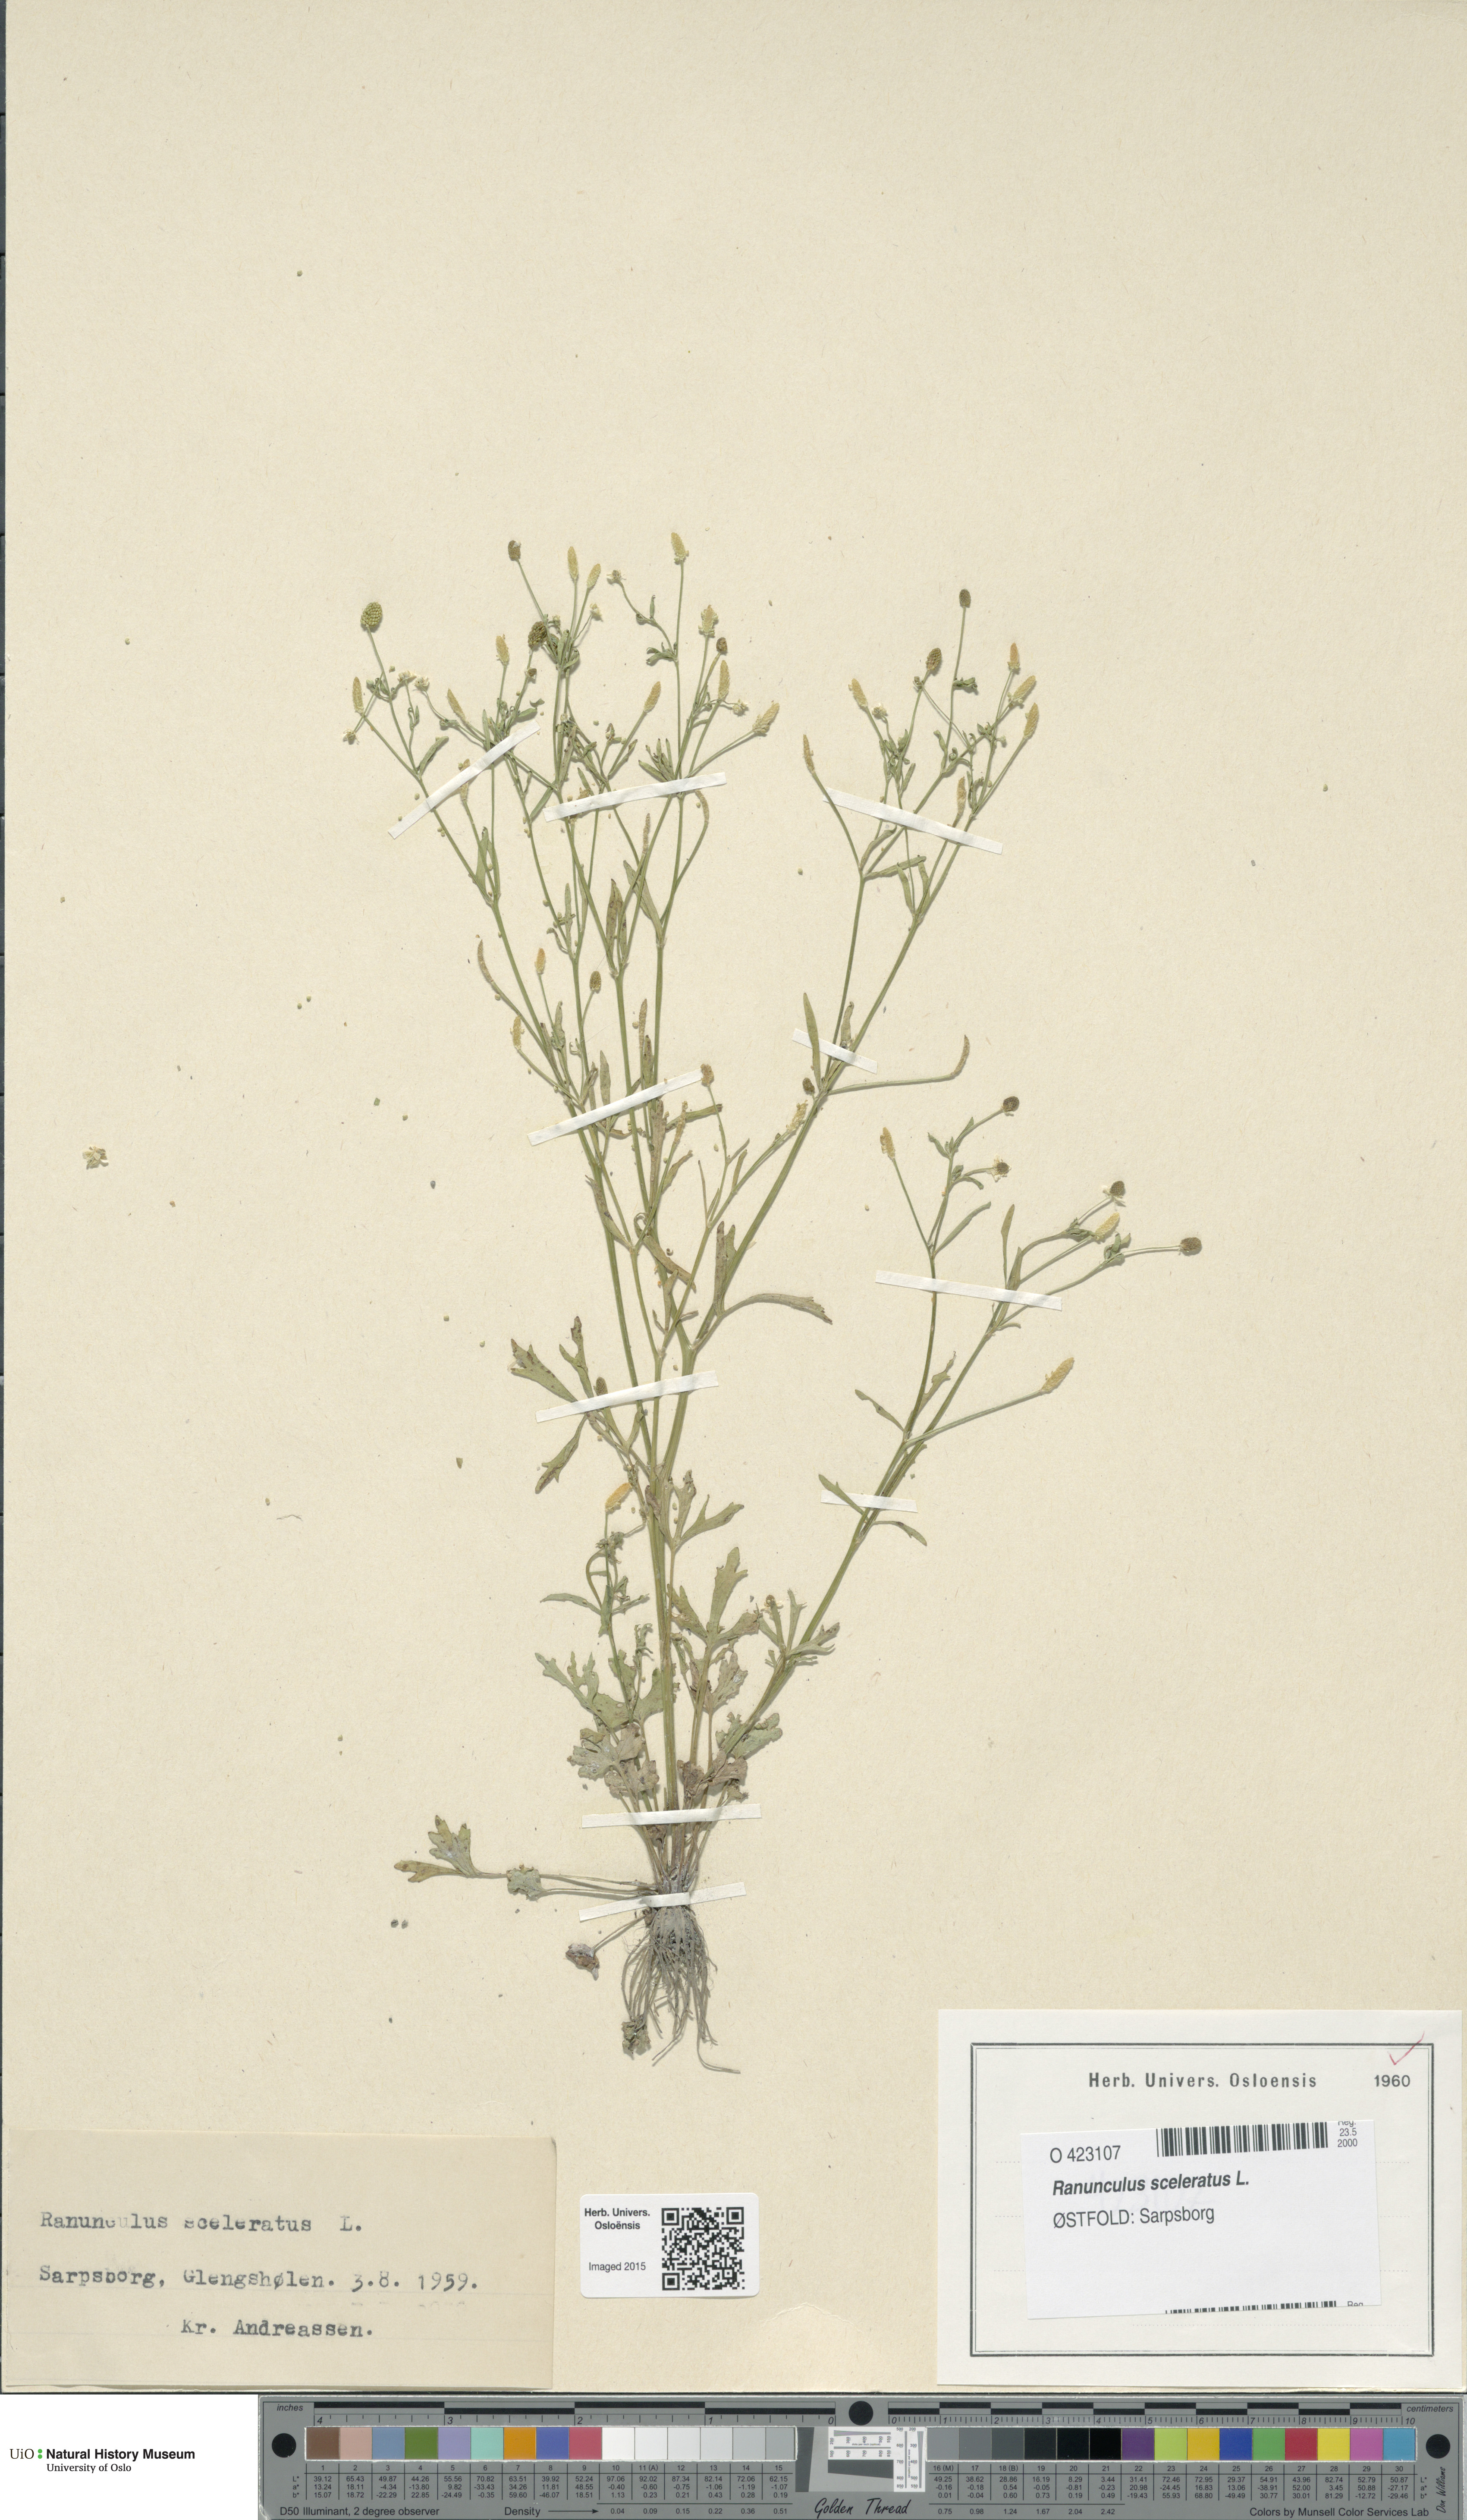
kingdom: Plantae
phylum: Tracheophyta
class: Magnoliopsida
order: Ranunculales
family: Ranunculaceae
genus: Ranunculus
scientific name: Ranunculus sceleratus
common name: Celery-leaved buttercup
